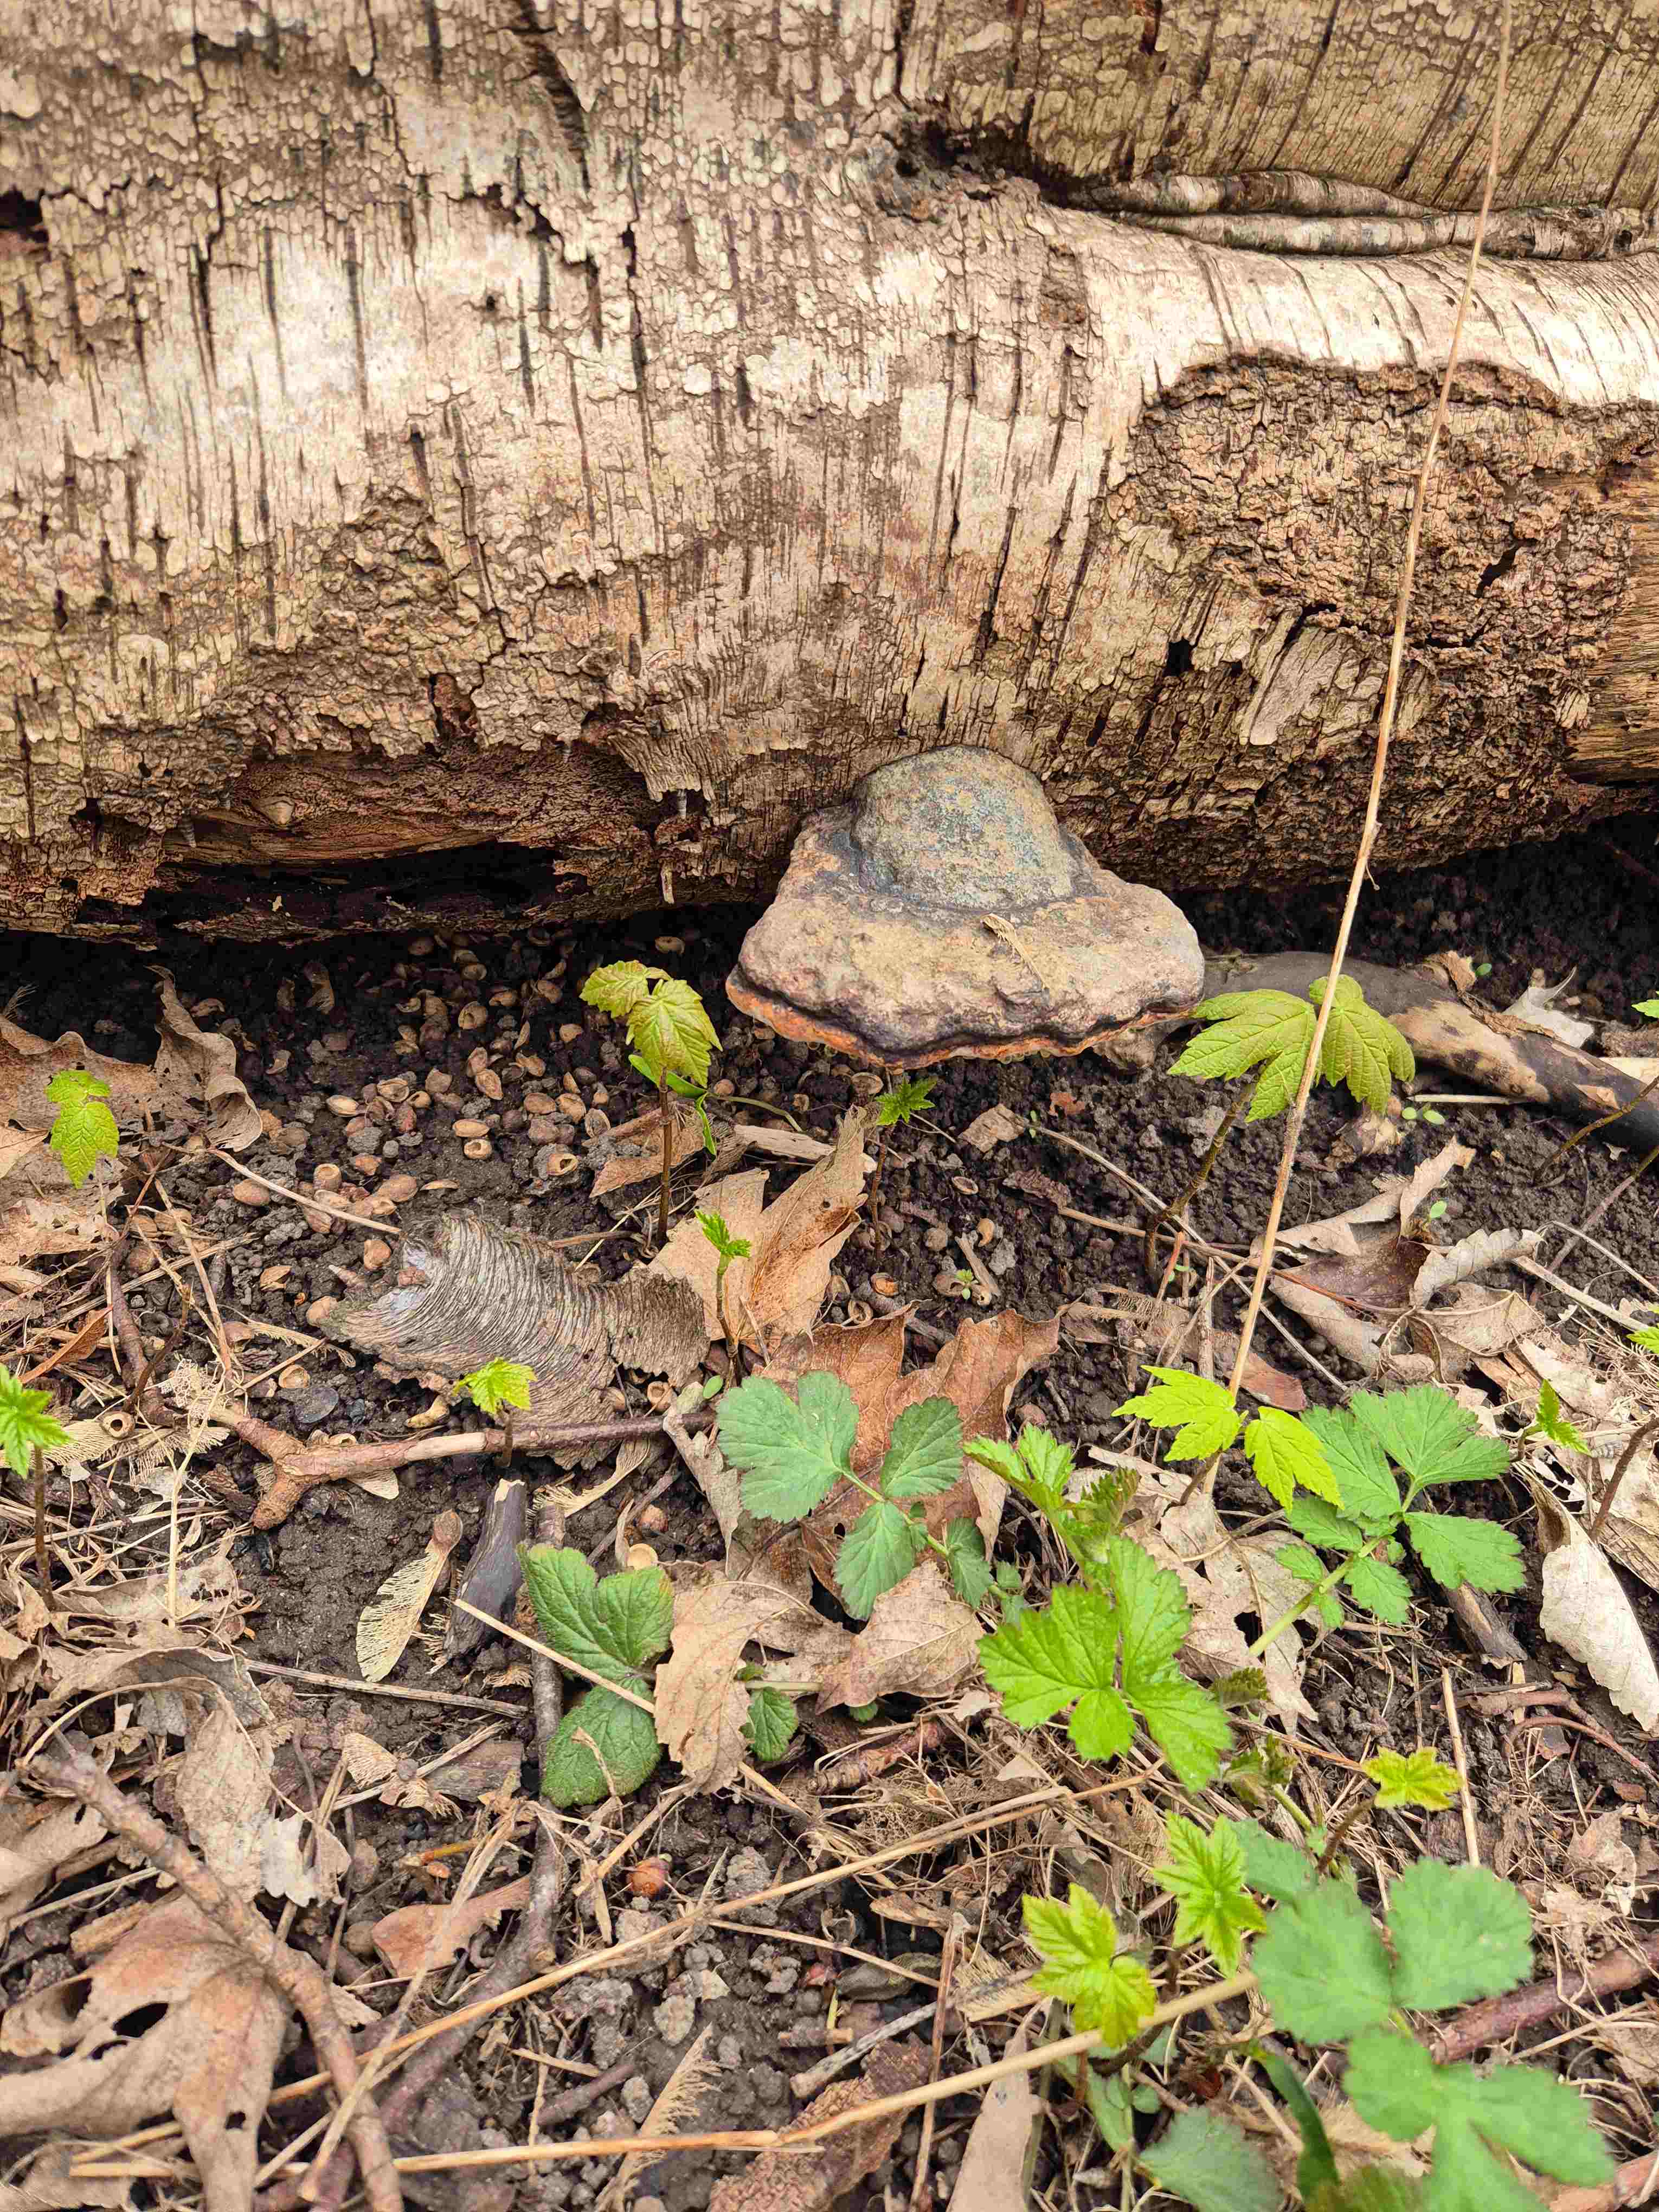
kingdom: Fungi
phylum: Basidiomycota
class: Agaricomycetes
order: Polyporales
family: Fomitopsidaceae
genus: Fomitopsis
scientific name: Fomitopsis pinicola
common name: randbæltet hovporesvamp
